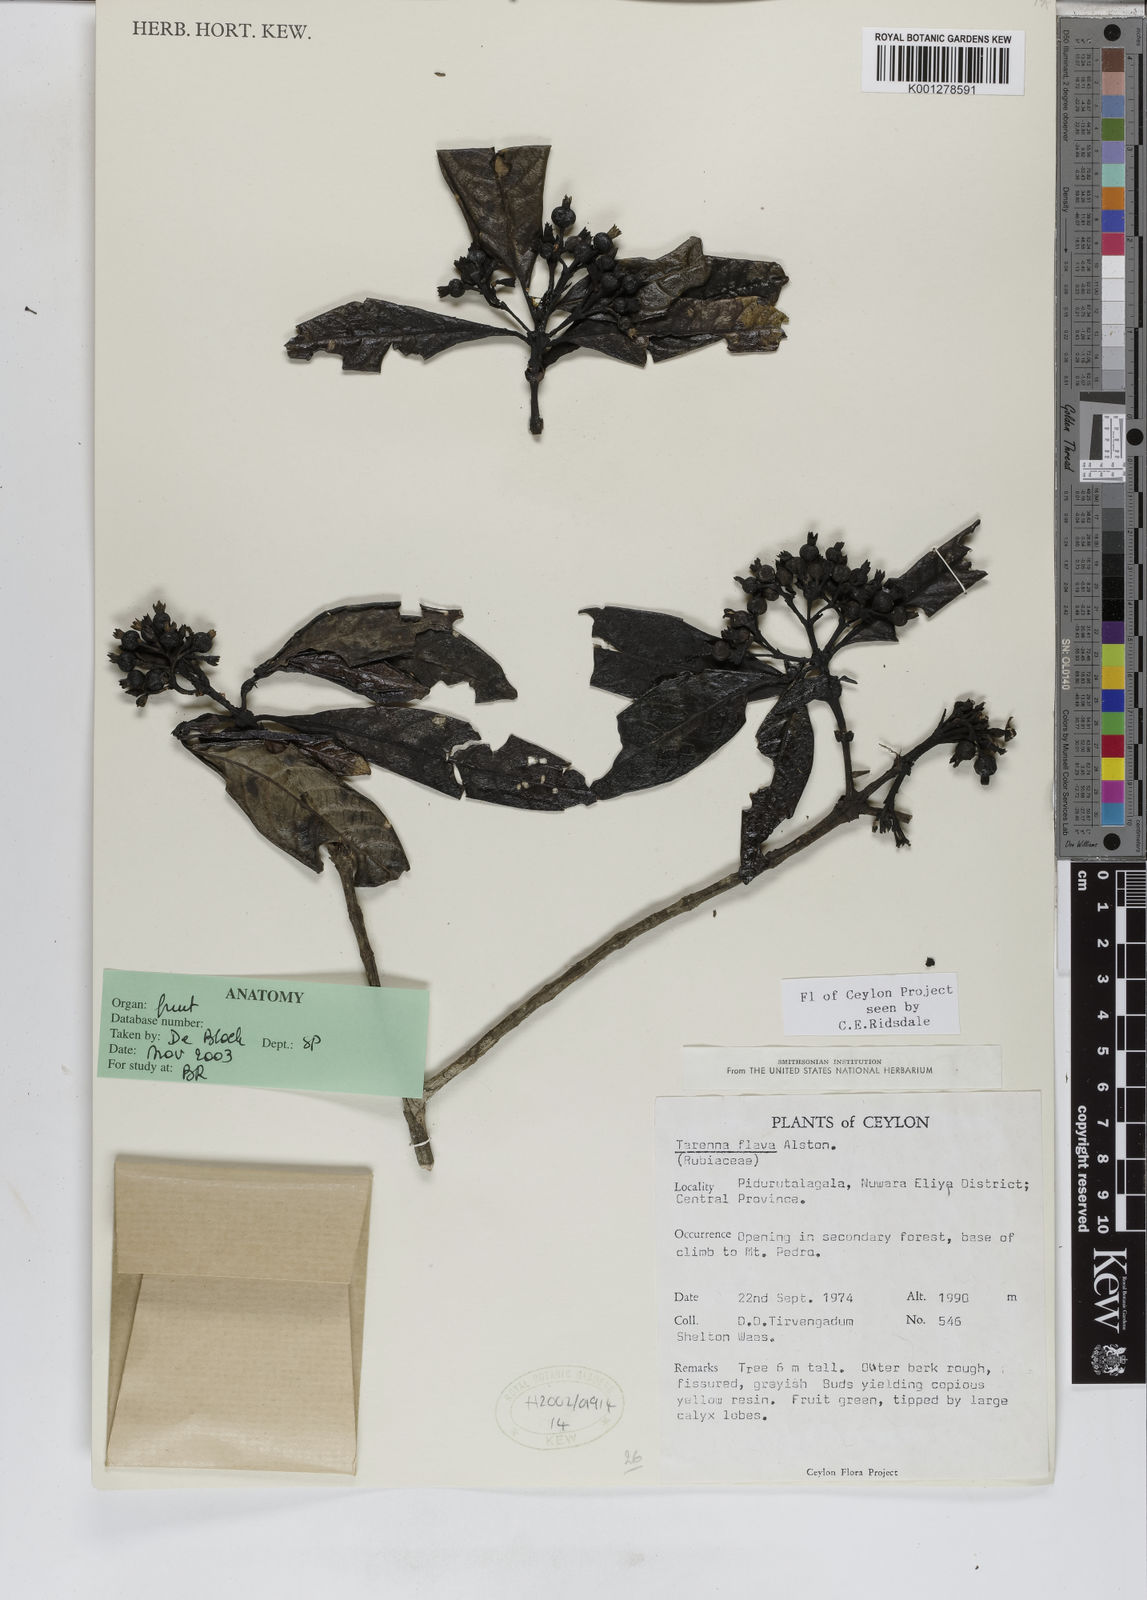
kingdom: Plantae
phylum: Tracheophyta
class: Magnoliopsida
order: Gentianales
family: Rubiaceae
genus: Tarenna
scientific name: Tarenna flava
